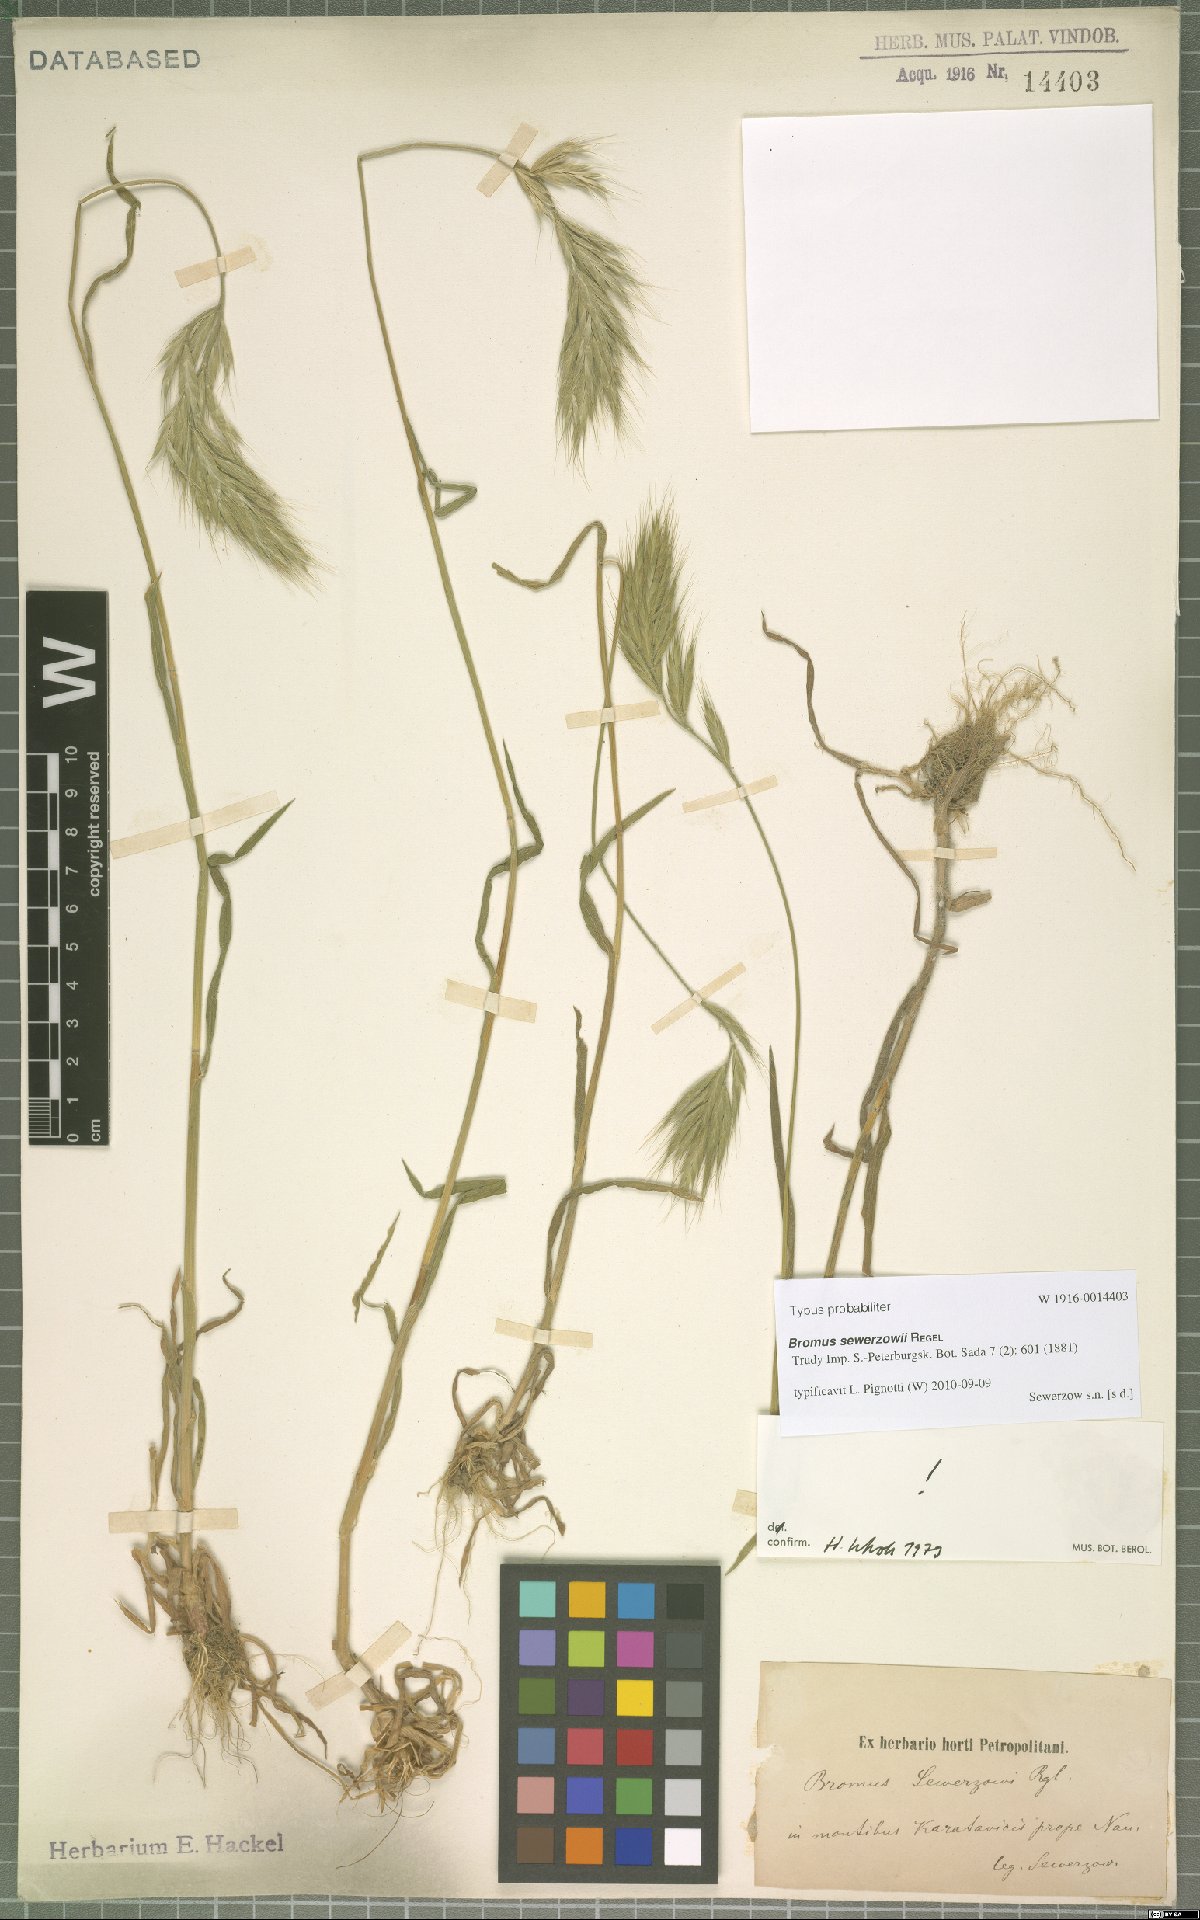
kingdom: Plantae
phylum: Tracheophyta
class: Liliopsida
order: Poales
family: Poaceae
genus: Bromus
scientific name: Bromus sewerzowii
